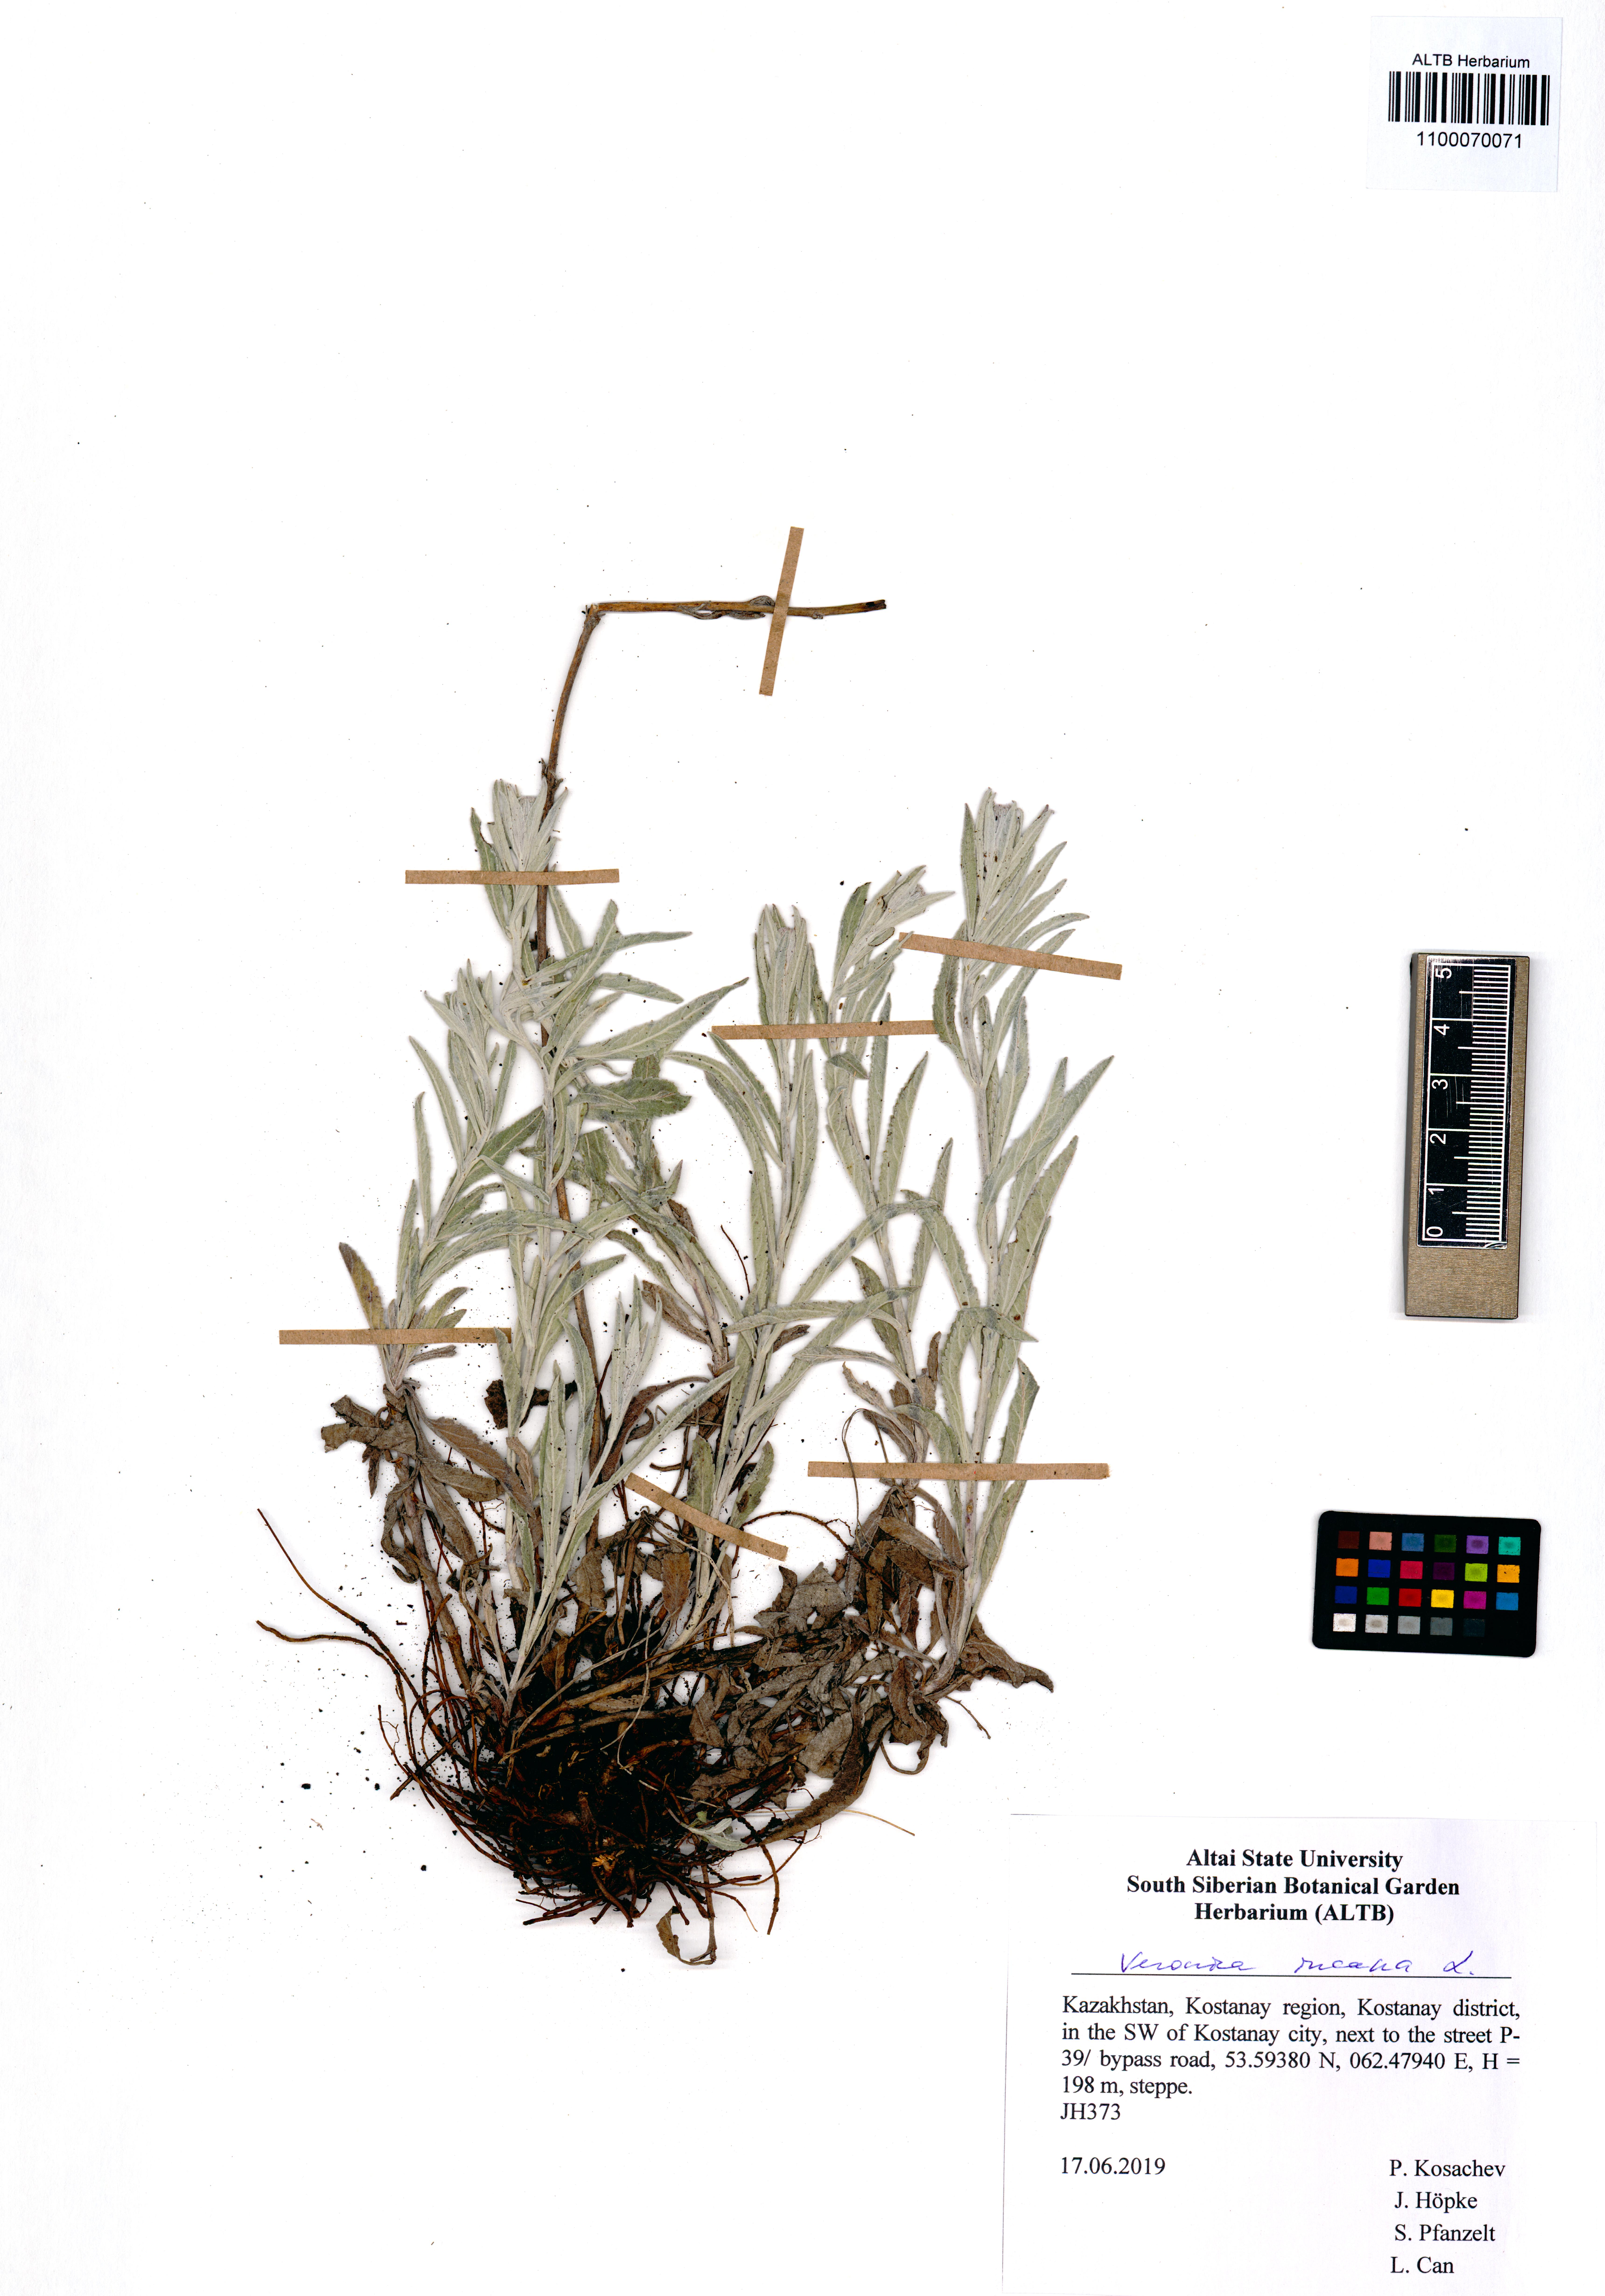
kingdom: Plantae
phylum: Tracheophyta
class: Magnoliopsida
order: Lamiales
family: Plantaginaceae
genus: Veronica
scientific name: Veronica incana
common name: Silver speedwell
